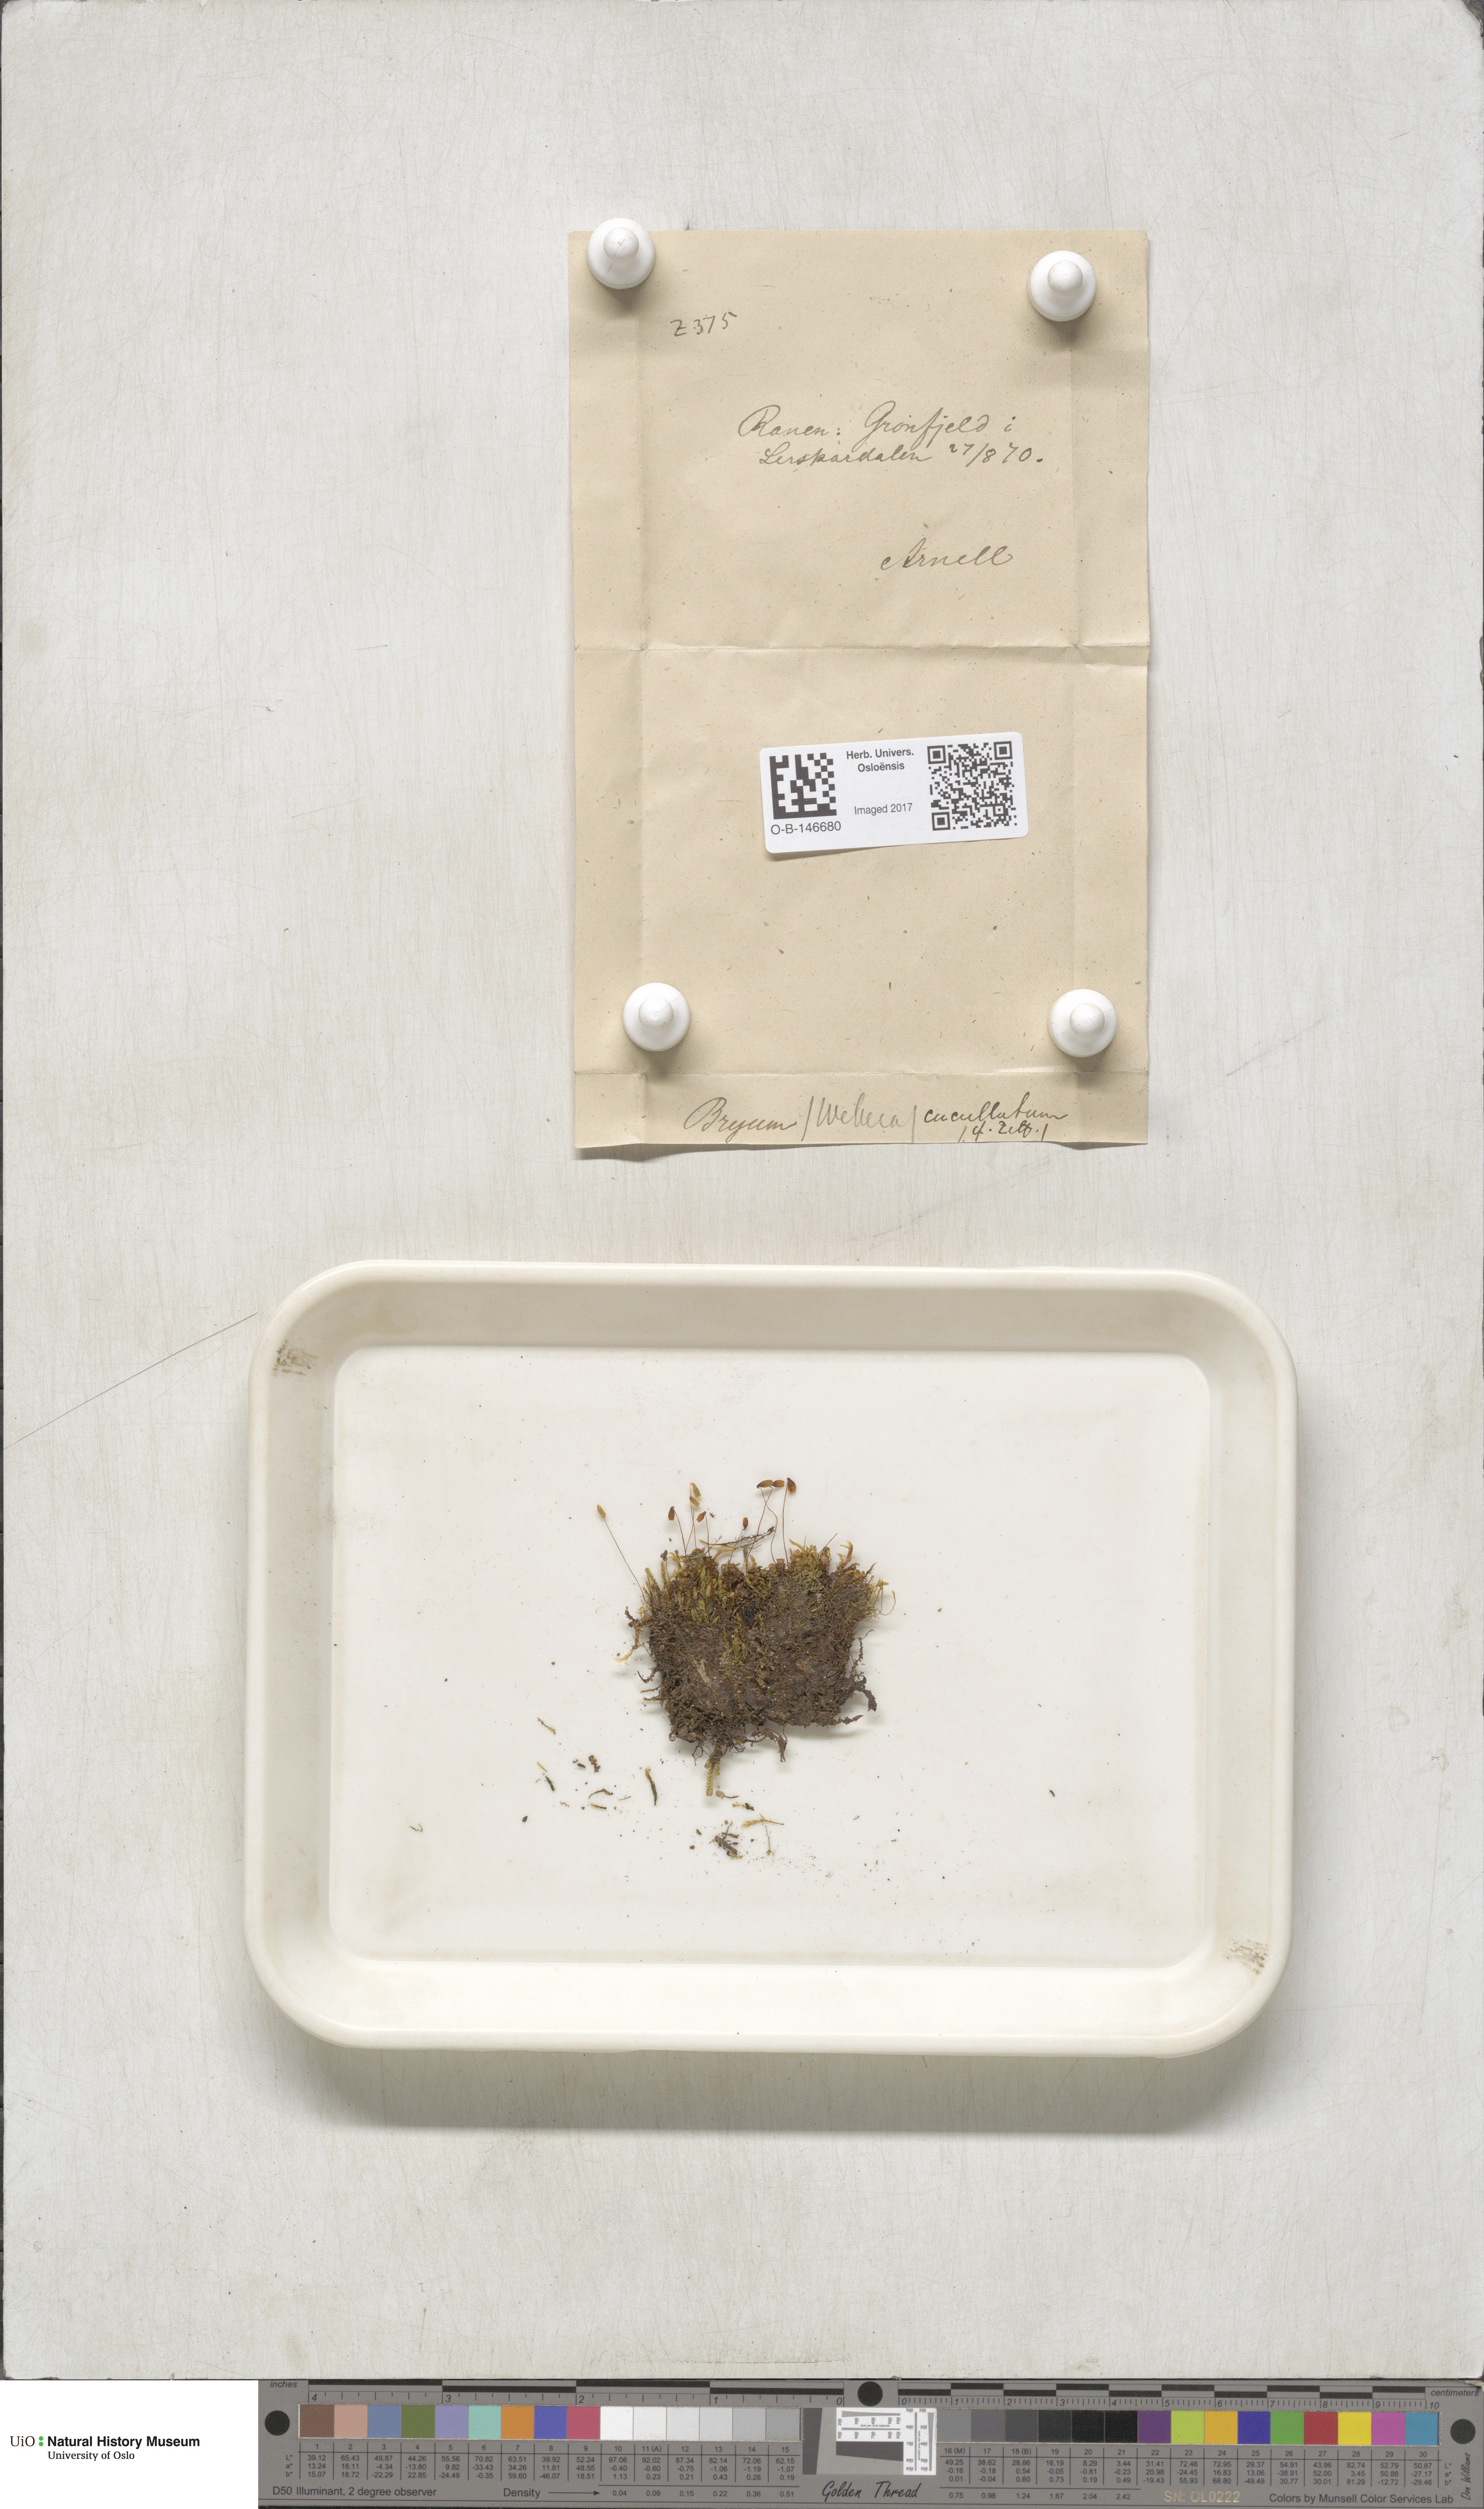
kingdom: Plantae
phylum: Bryophyta
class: Bryopsida
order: Bryales
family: Mniaceae
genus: Pohlia
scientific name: Pohlia obtusifolia
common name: Blunt nodding moss
